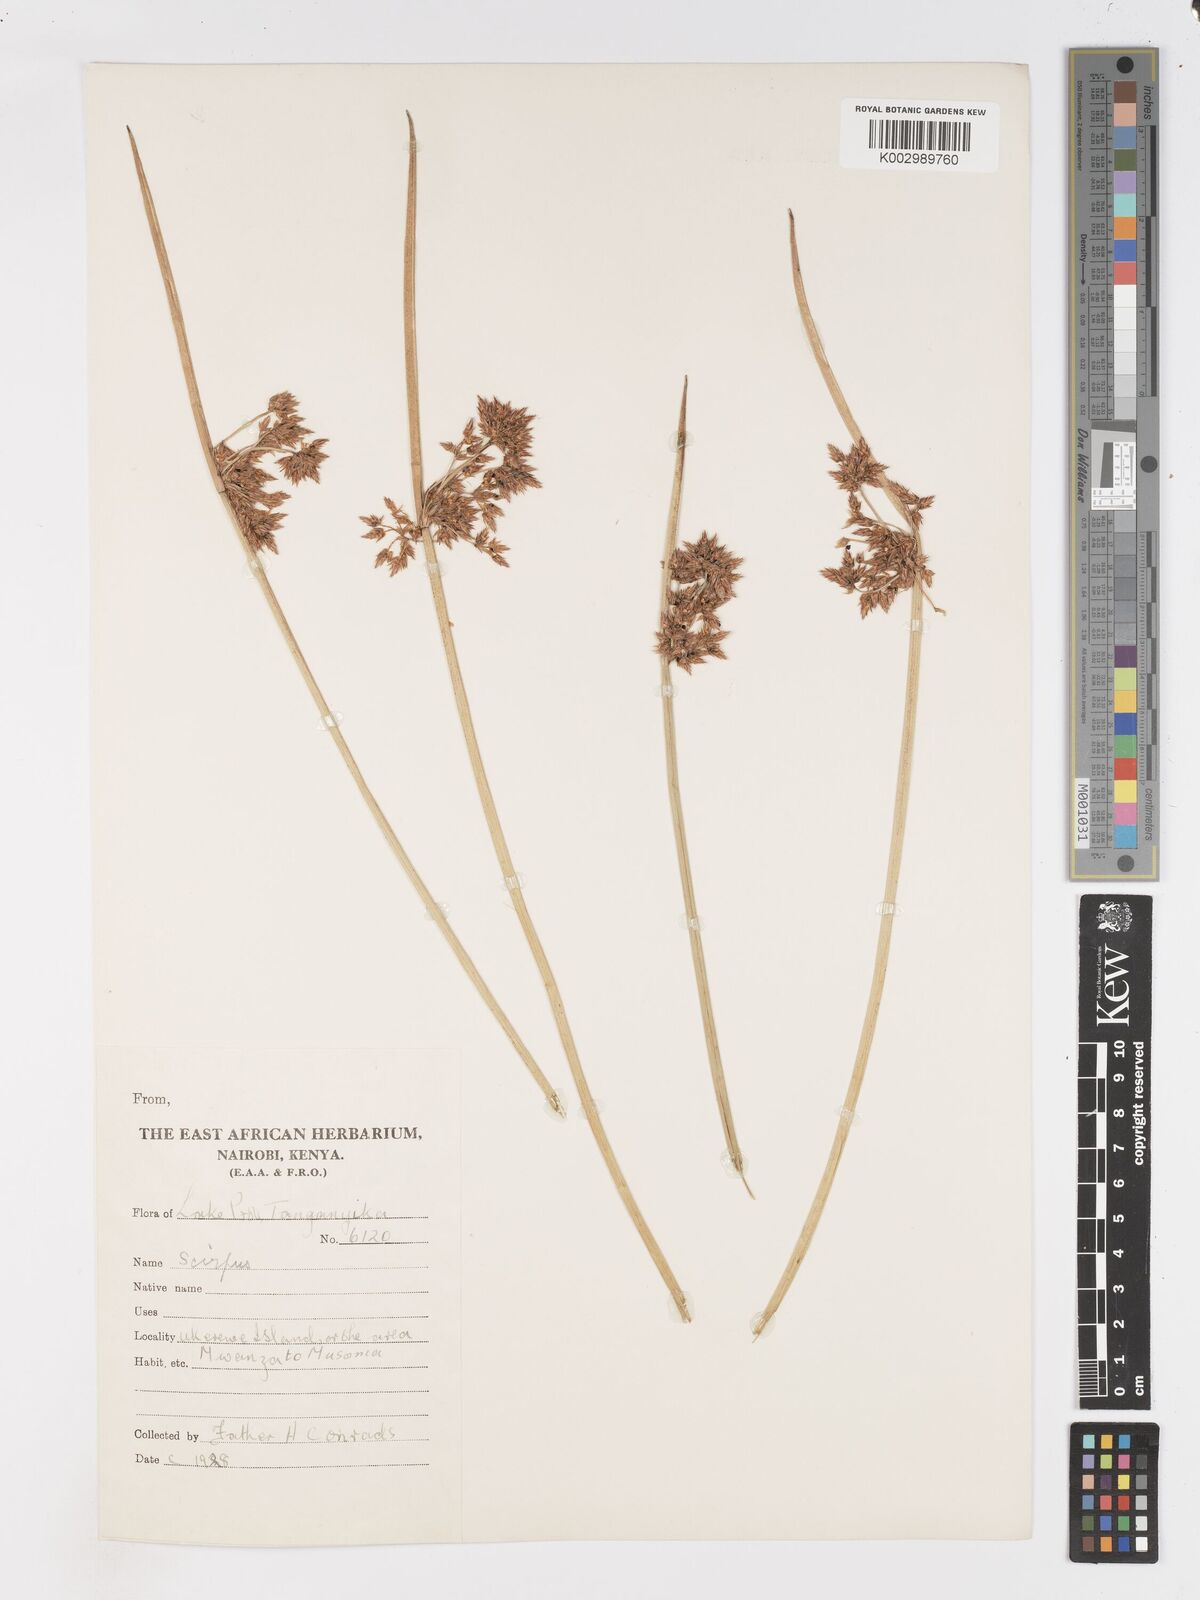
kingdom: Plantae
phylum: Tracheophyta
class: Liliopsida
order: Poales
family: Cyperaceae
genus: Schoenoplectiella
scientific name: Schoenoplectiella confusa
